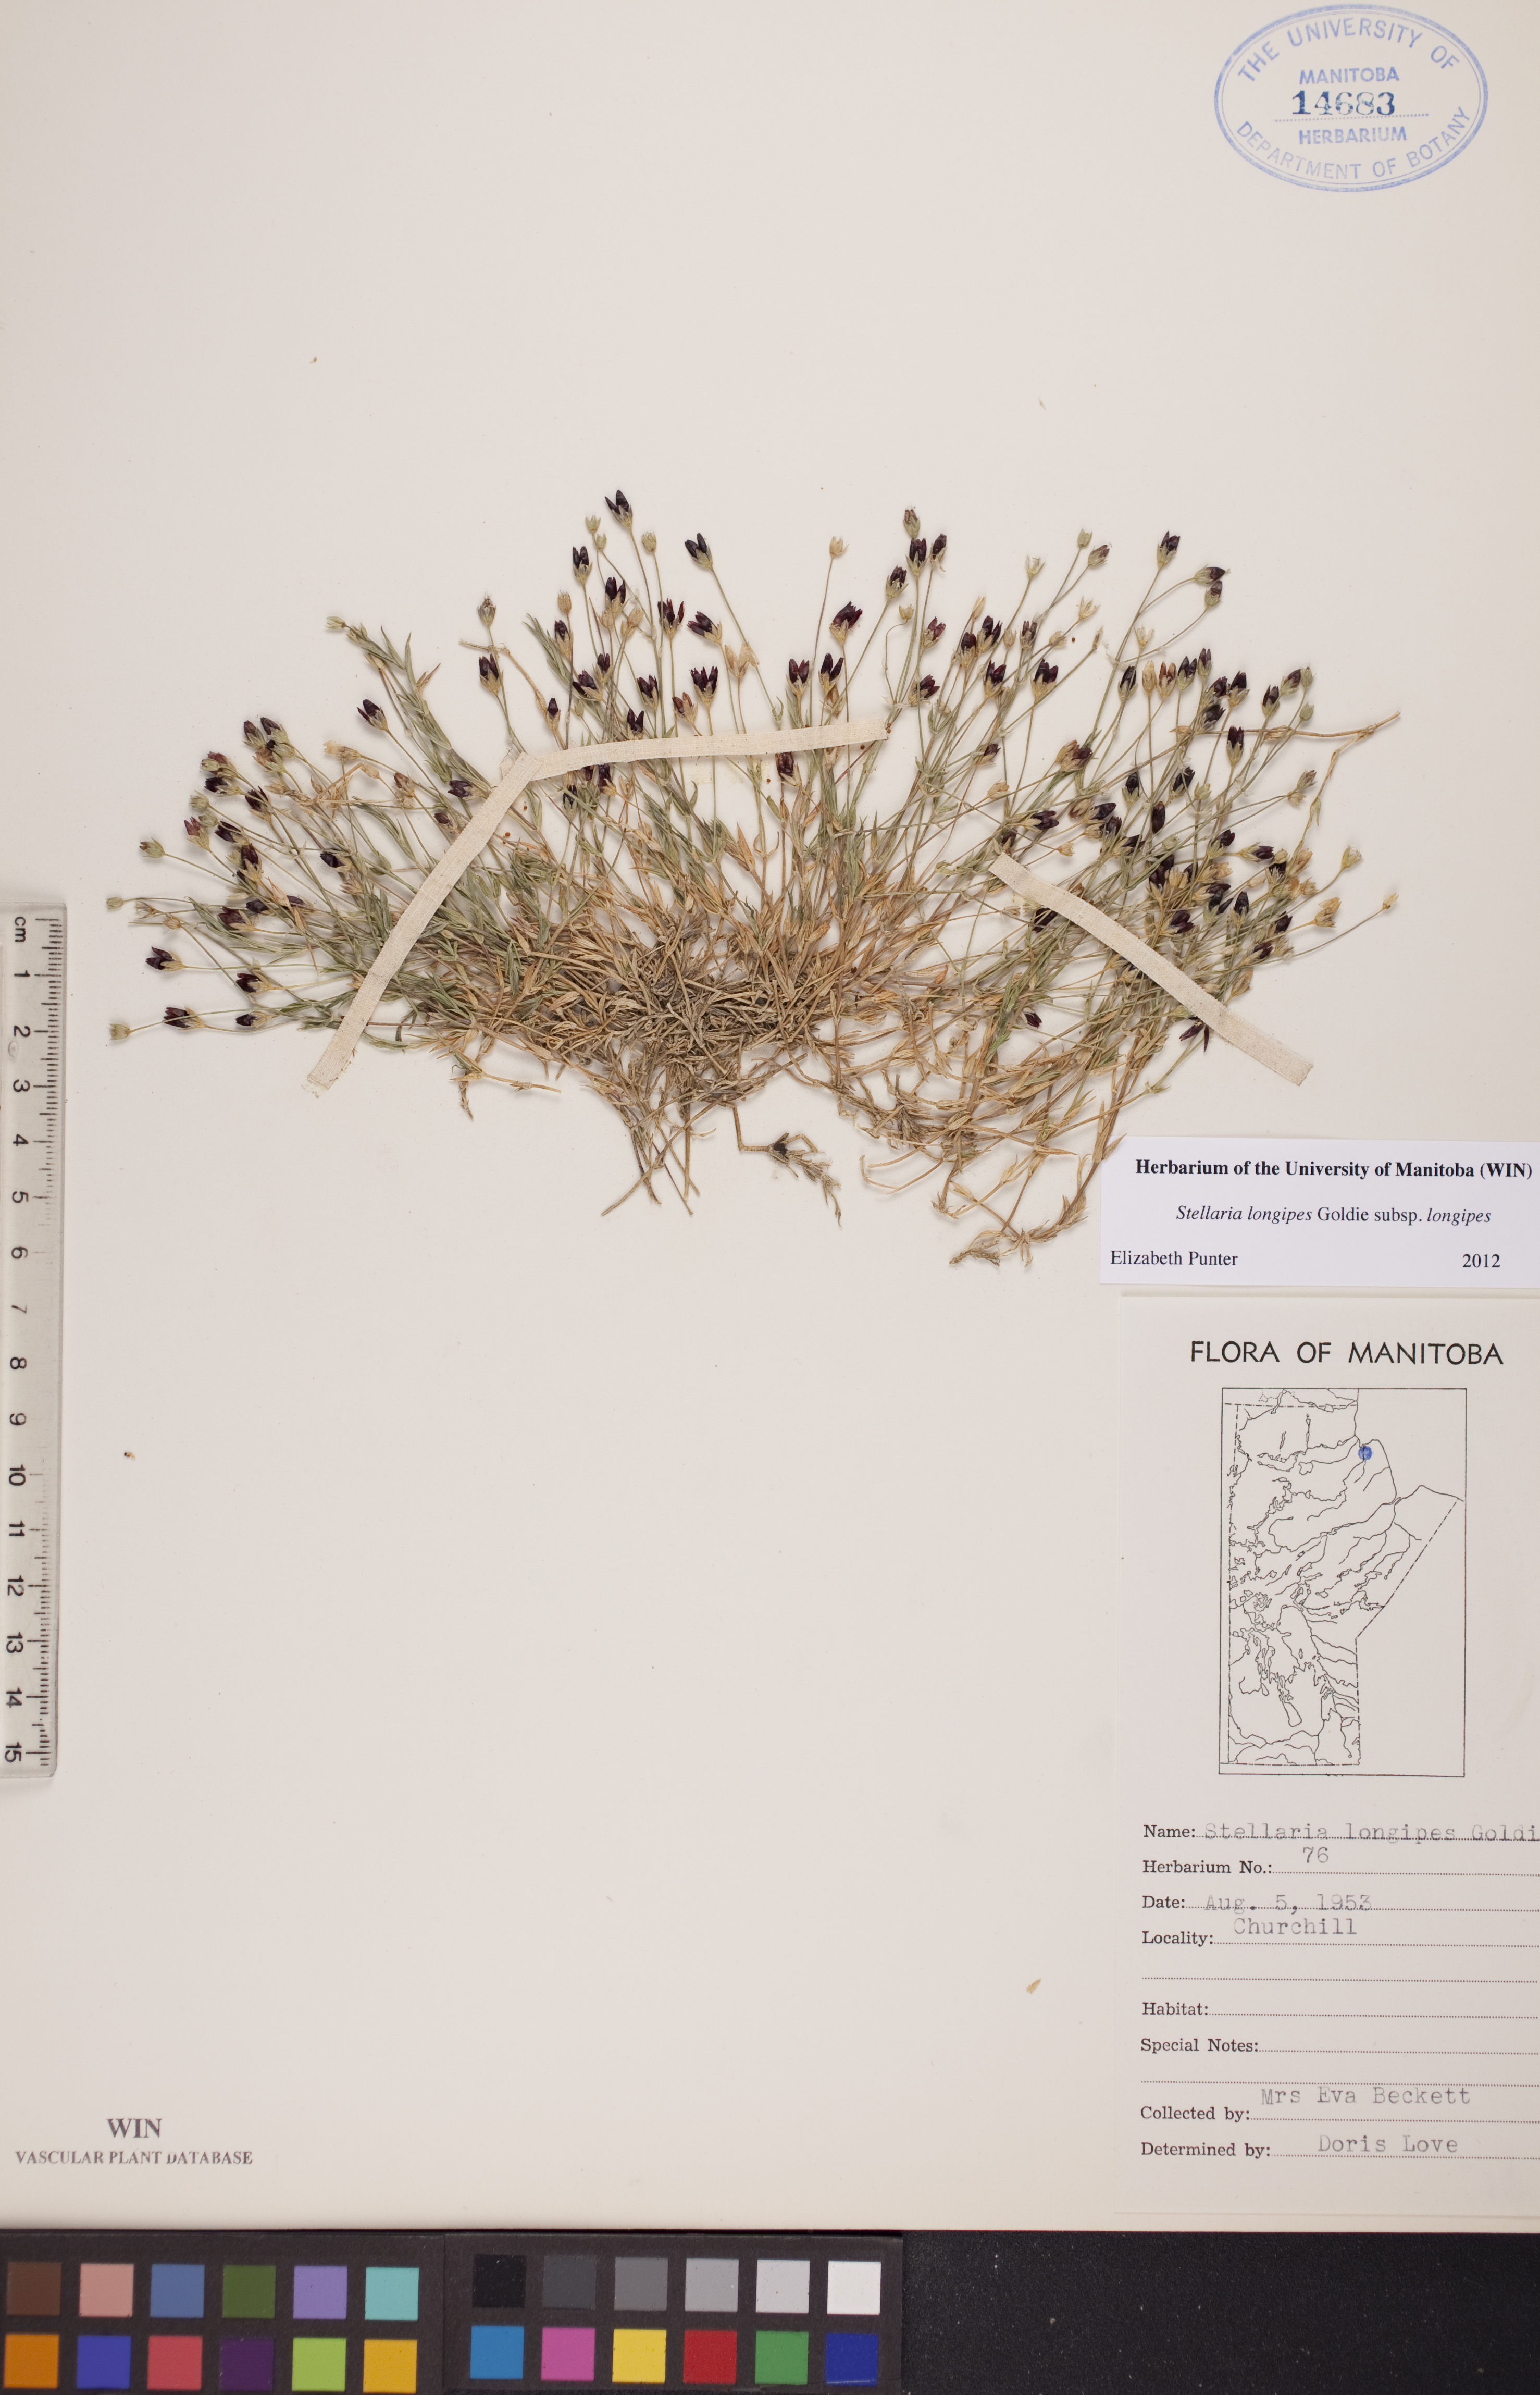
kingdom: Plantae
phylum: Tracheophyta
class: Magnoliopsida
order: Caryophyllales
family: Caryophyllaceae
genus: Stellaria
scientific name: Stellaria longipes
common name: Goldie's starwort
